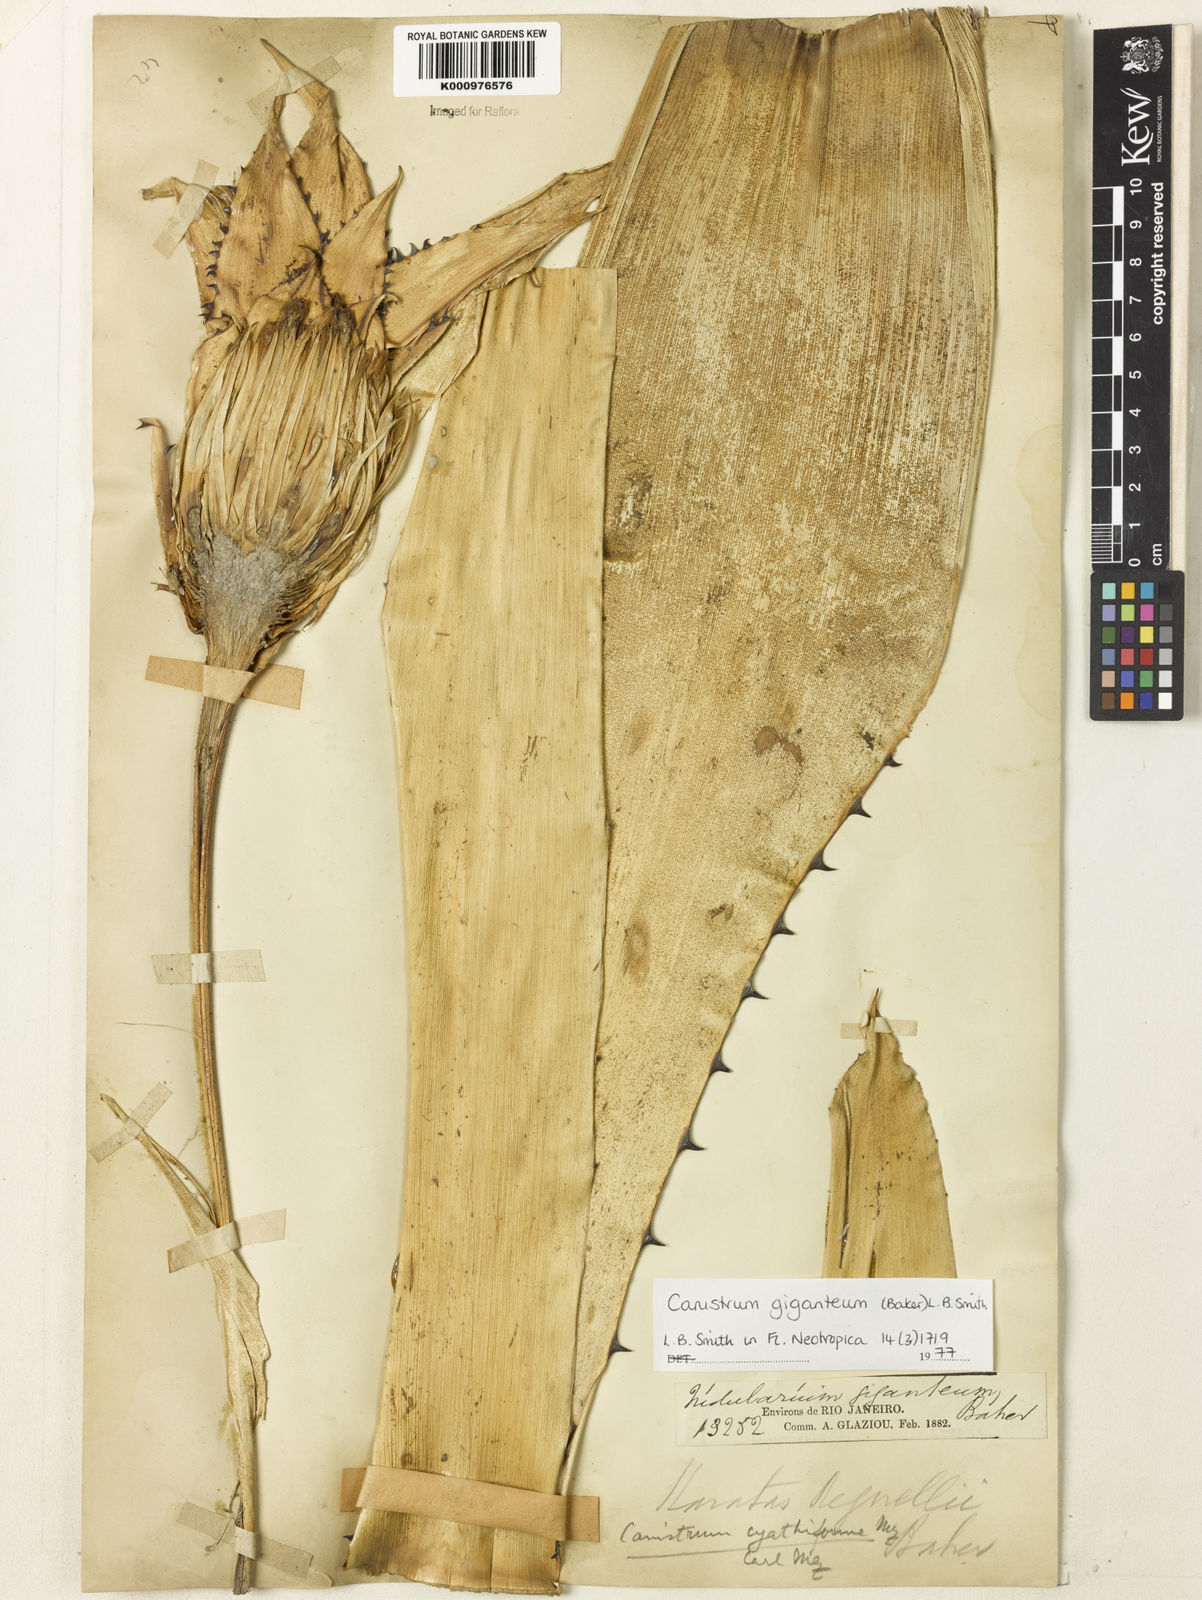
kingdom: Plantae
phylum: Tracheophyta
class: Liliopsida
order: Poales
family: Bromeliaceae
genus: Wittrockia
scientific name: Wittrockia gigantea
